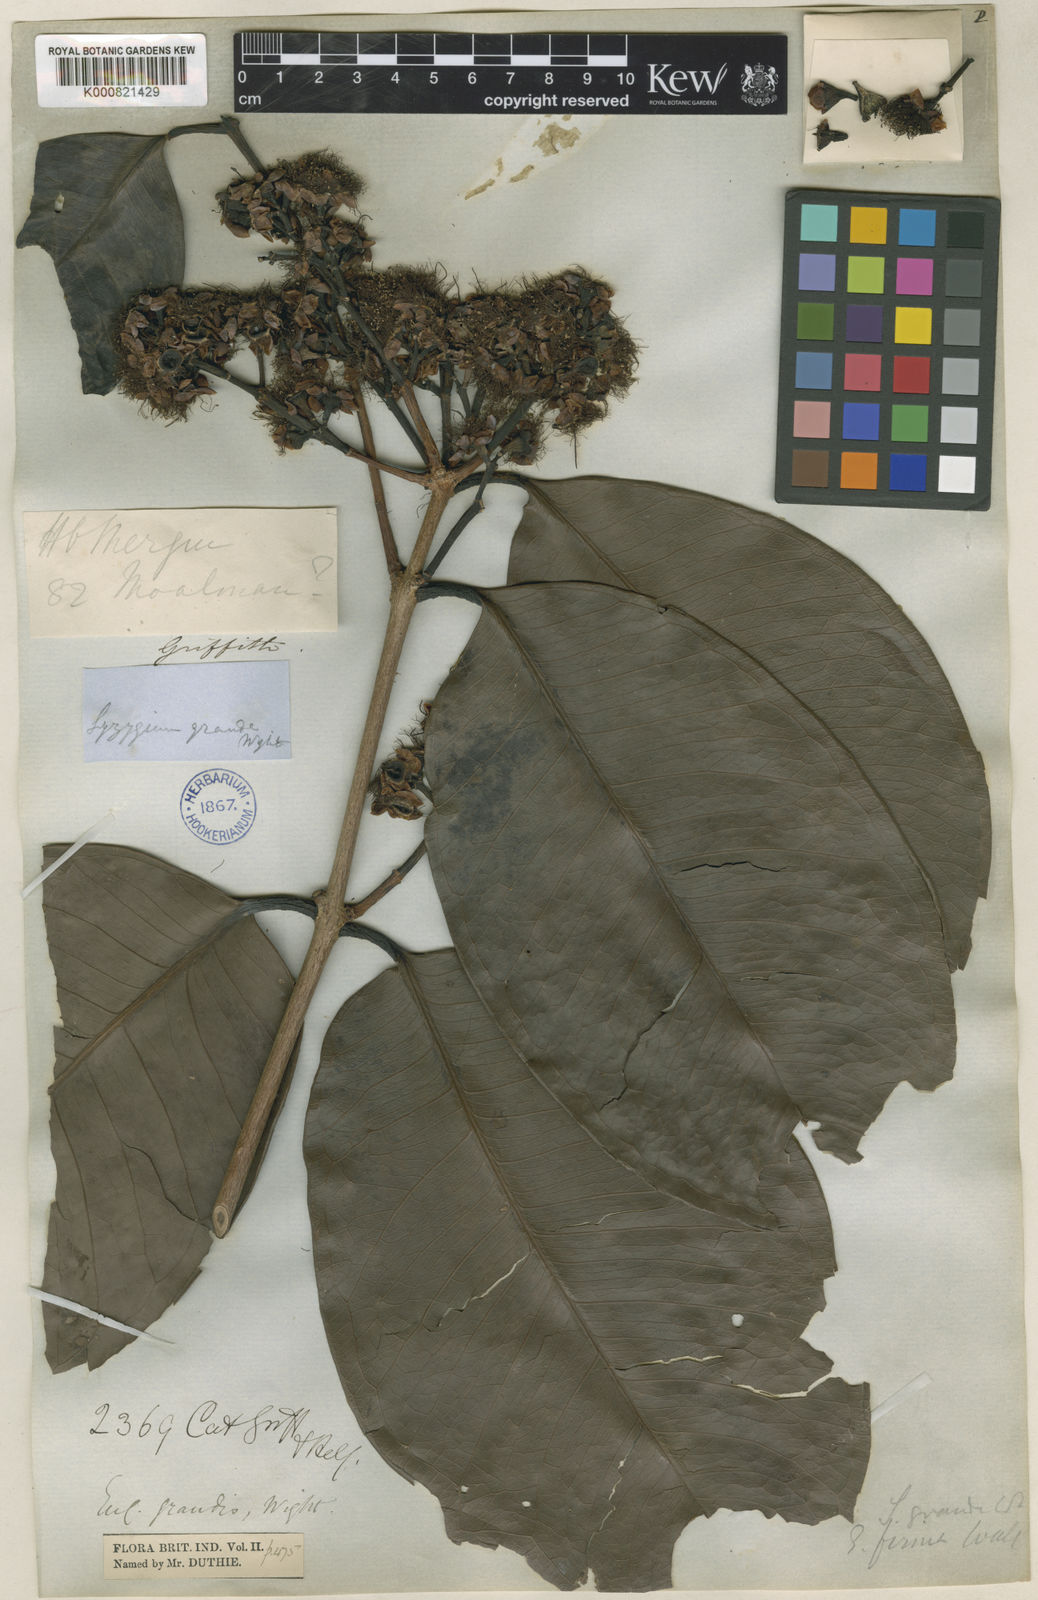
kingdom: Plantae
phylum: Tracheophyta
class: Magnoliopsida
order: Myrtales
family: Myrtaceae
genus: Syzygium
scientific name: Syzygium grande
